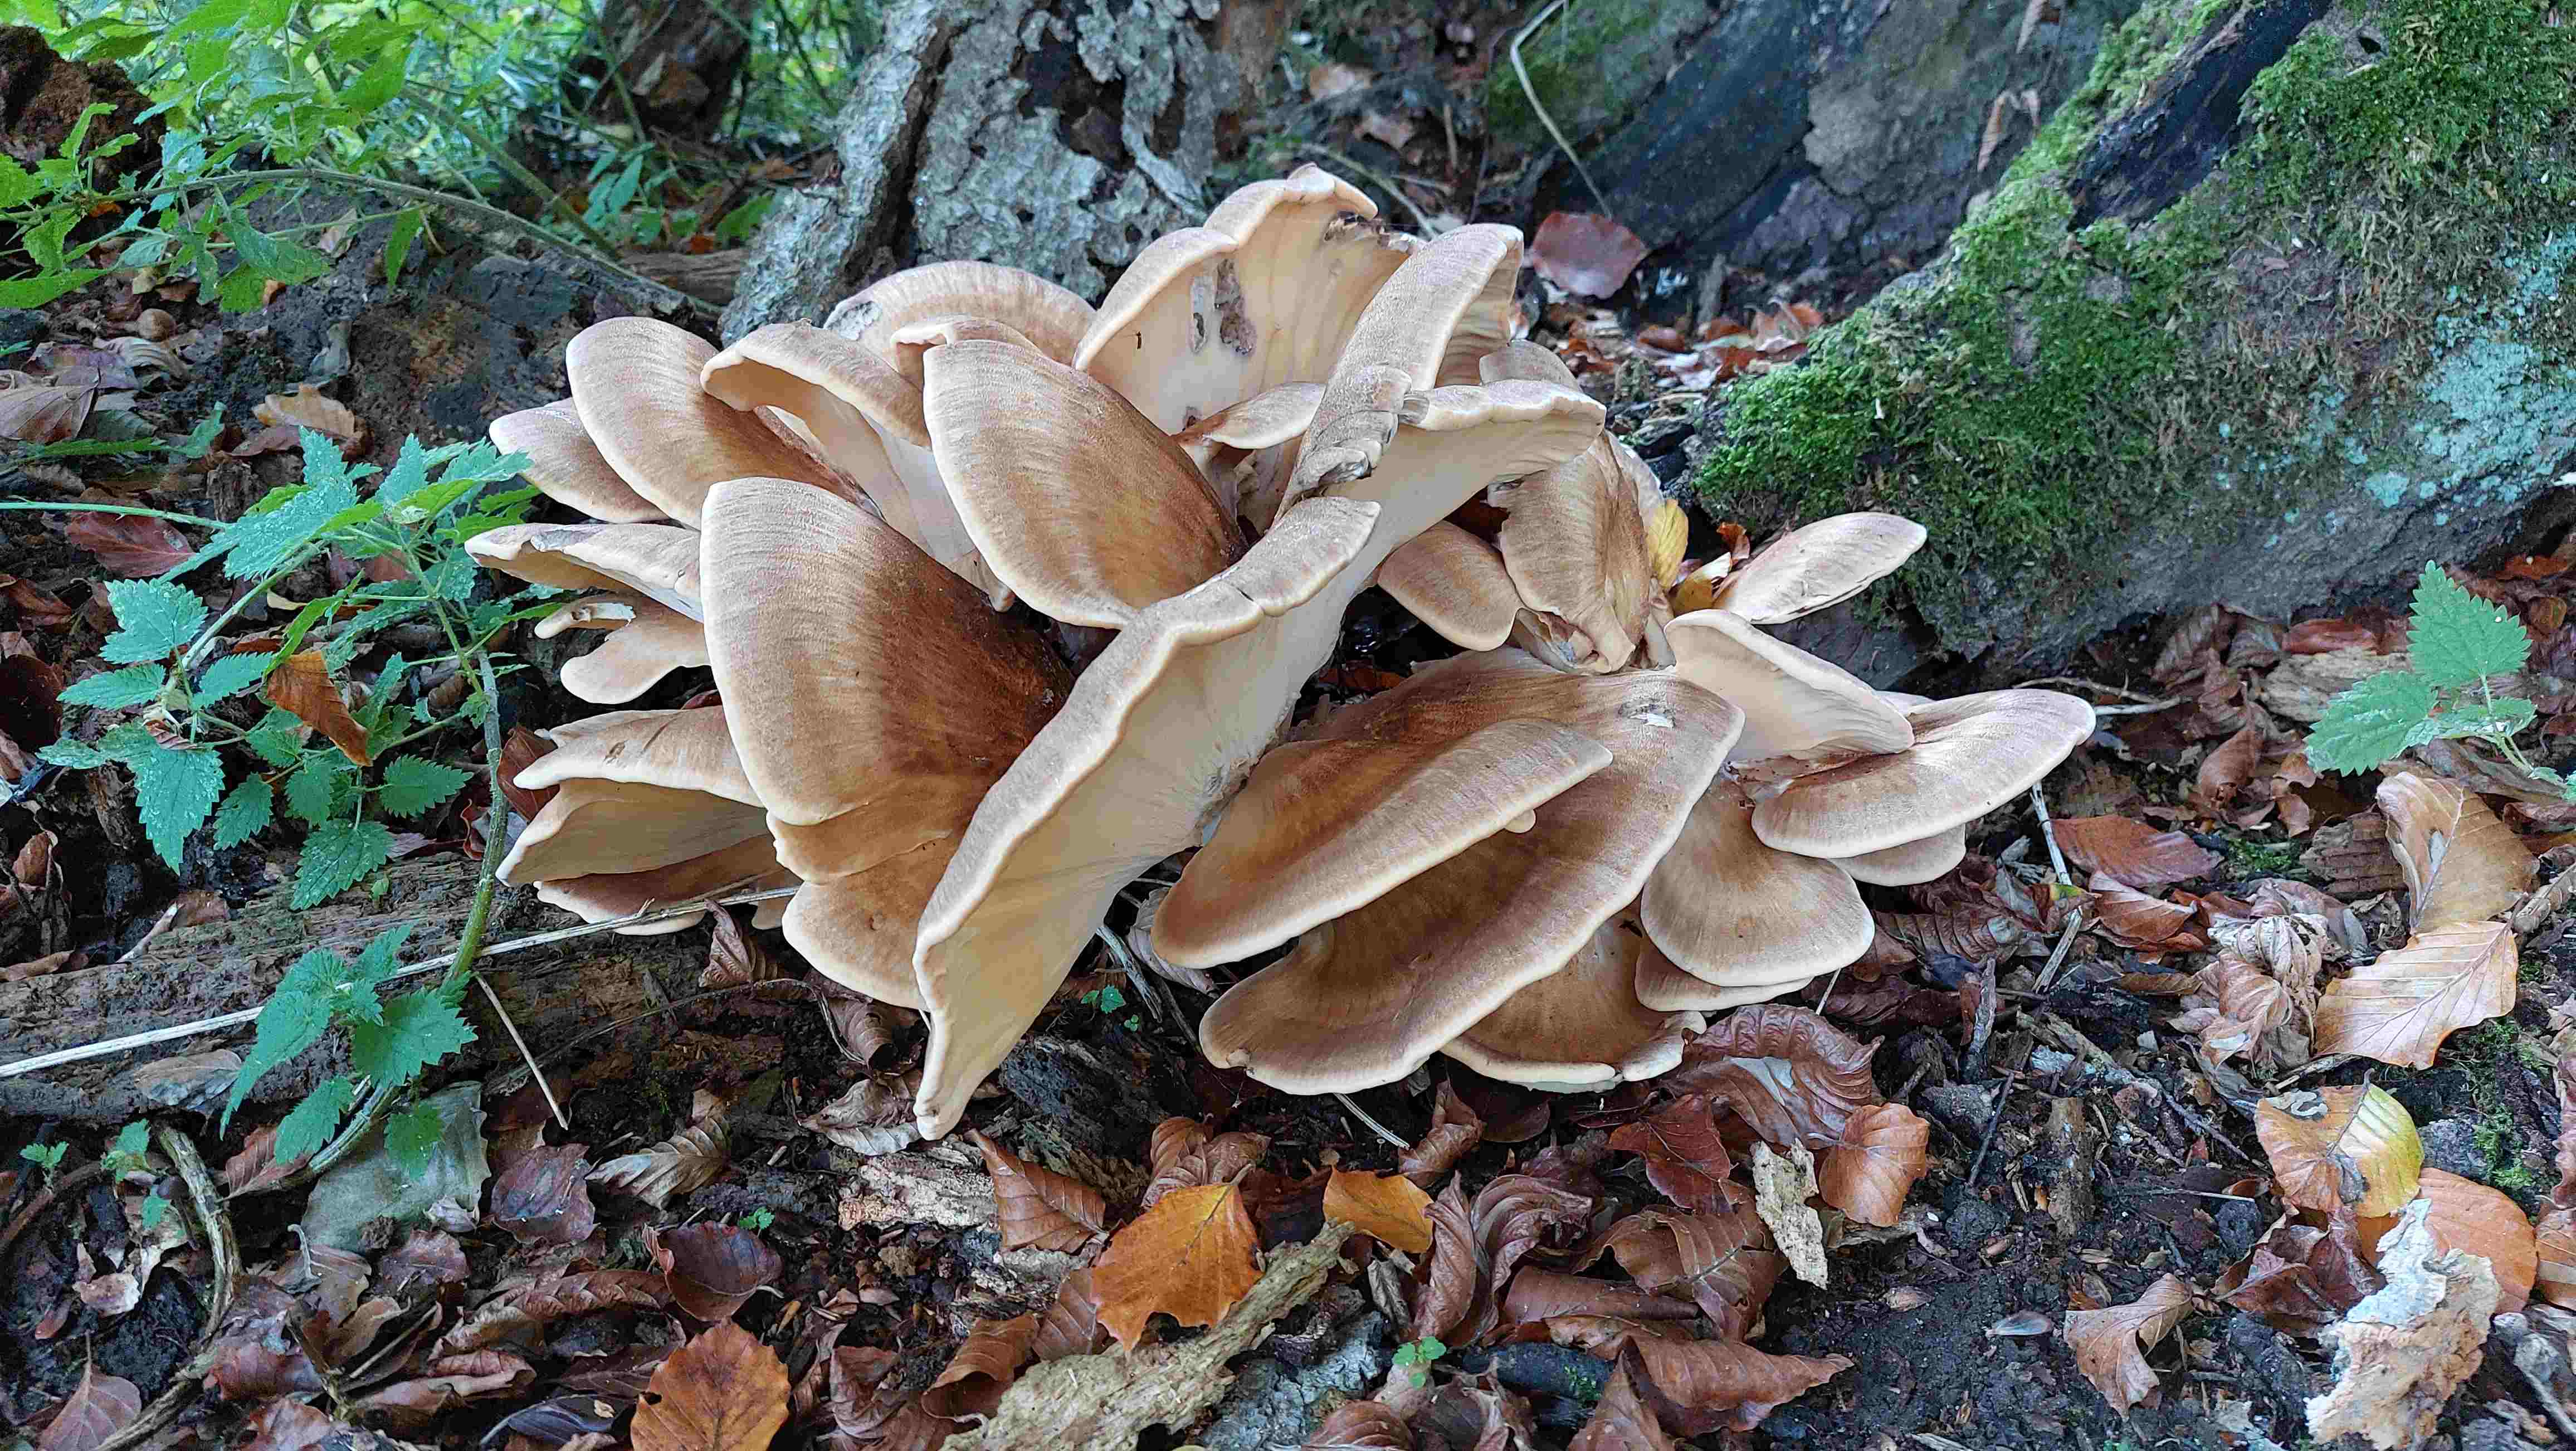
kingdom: Fungi
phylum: Basidiomycota
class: Agaricomycetes
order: Polyporales
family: Meripilaceae
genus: Meripilus
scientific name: Meripilus giganteus
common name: kæmpeporesvamp
